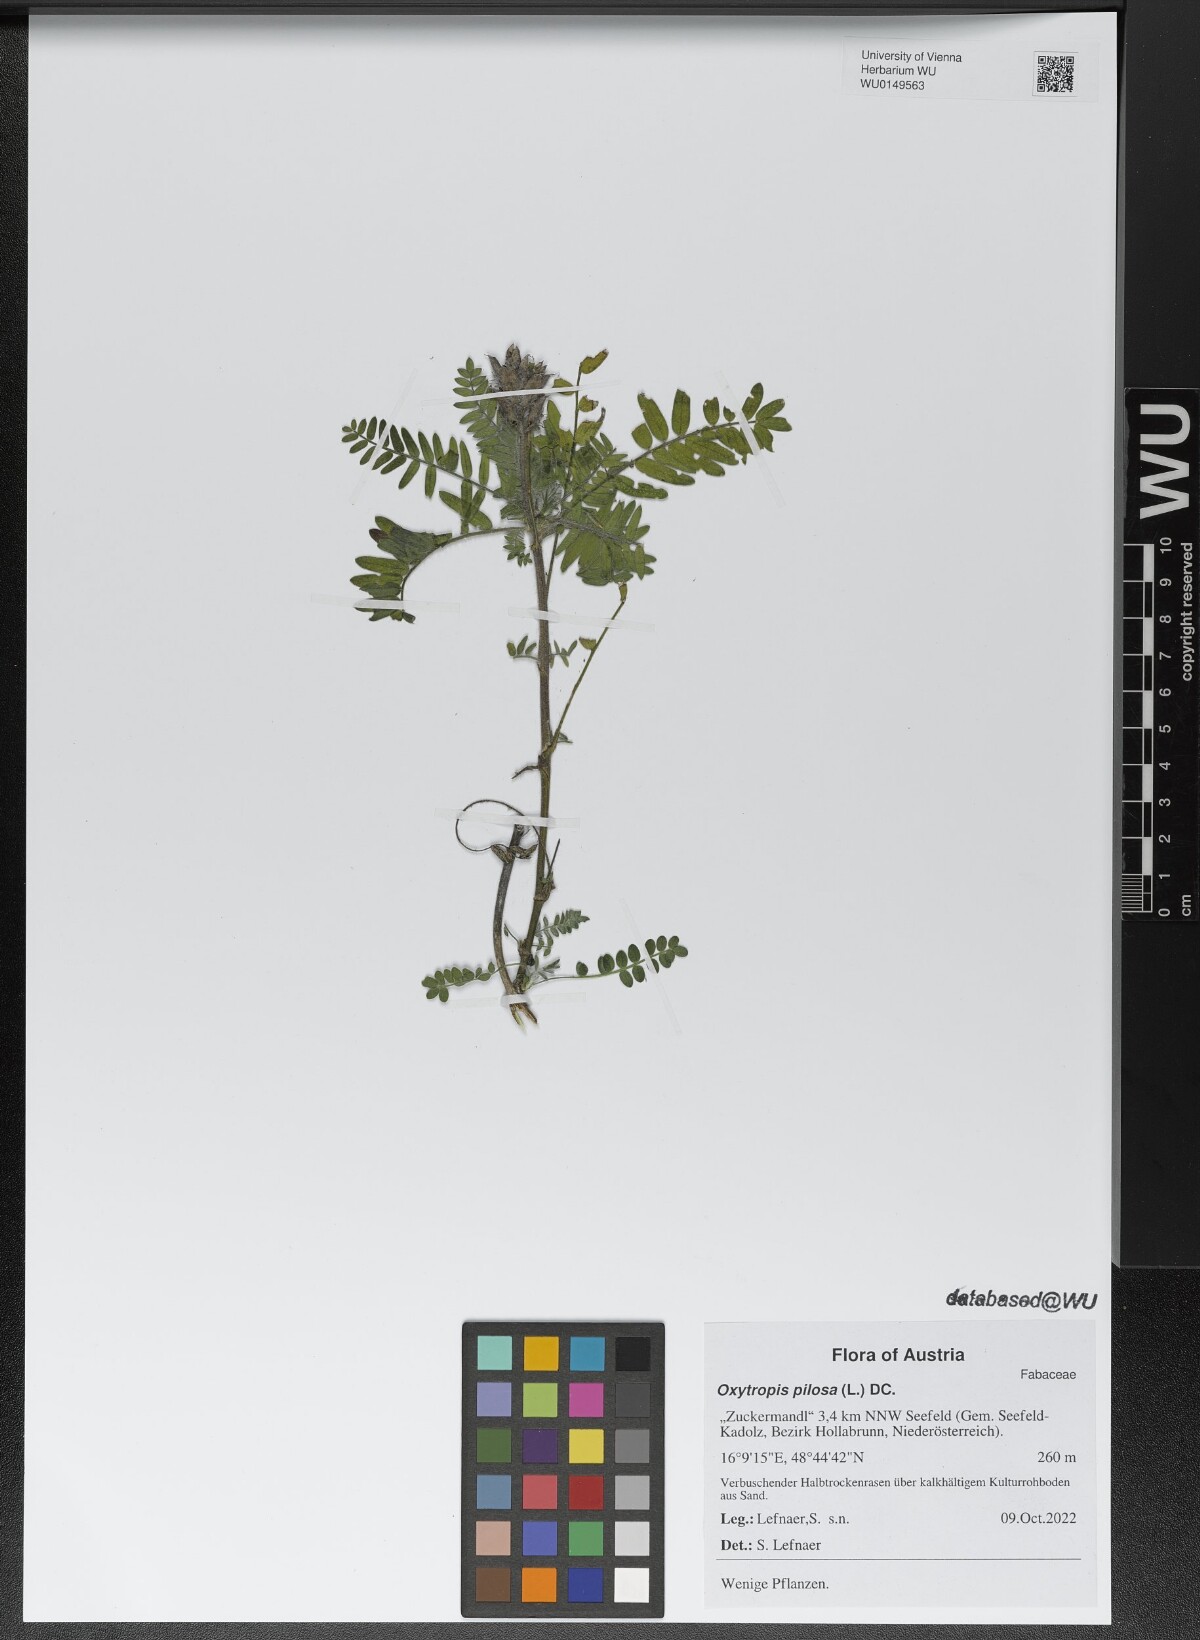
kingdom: Plantae
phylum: Tracheophyta
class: Magnoliopsida
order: Fabales
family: Fabaceae
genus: Oxytropis
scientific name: Oxytropis pilosa
